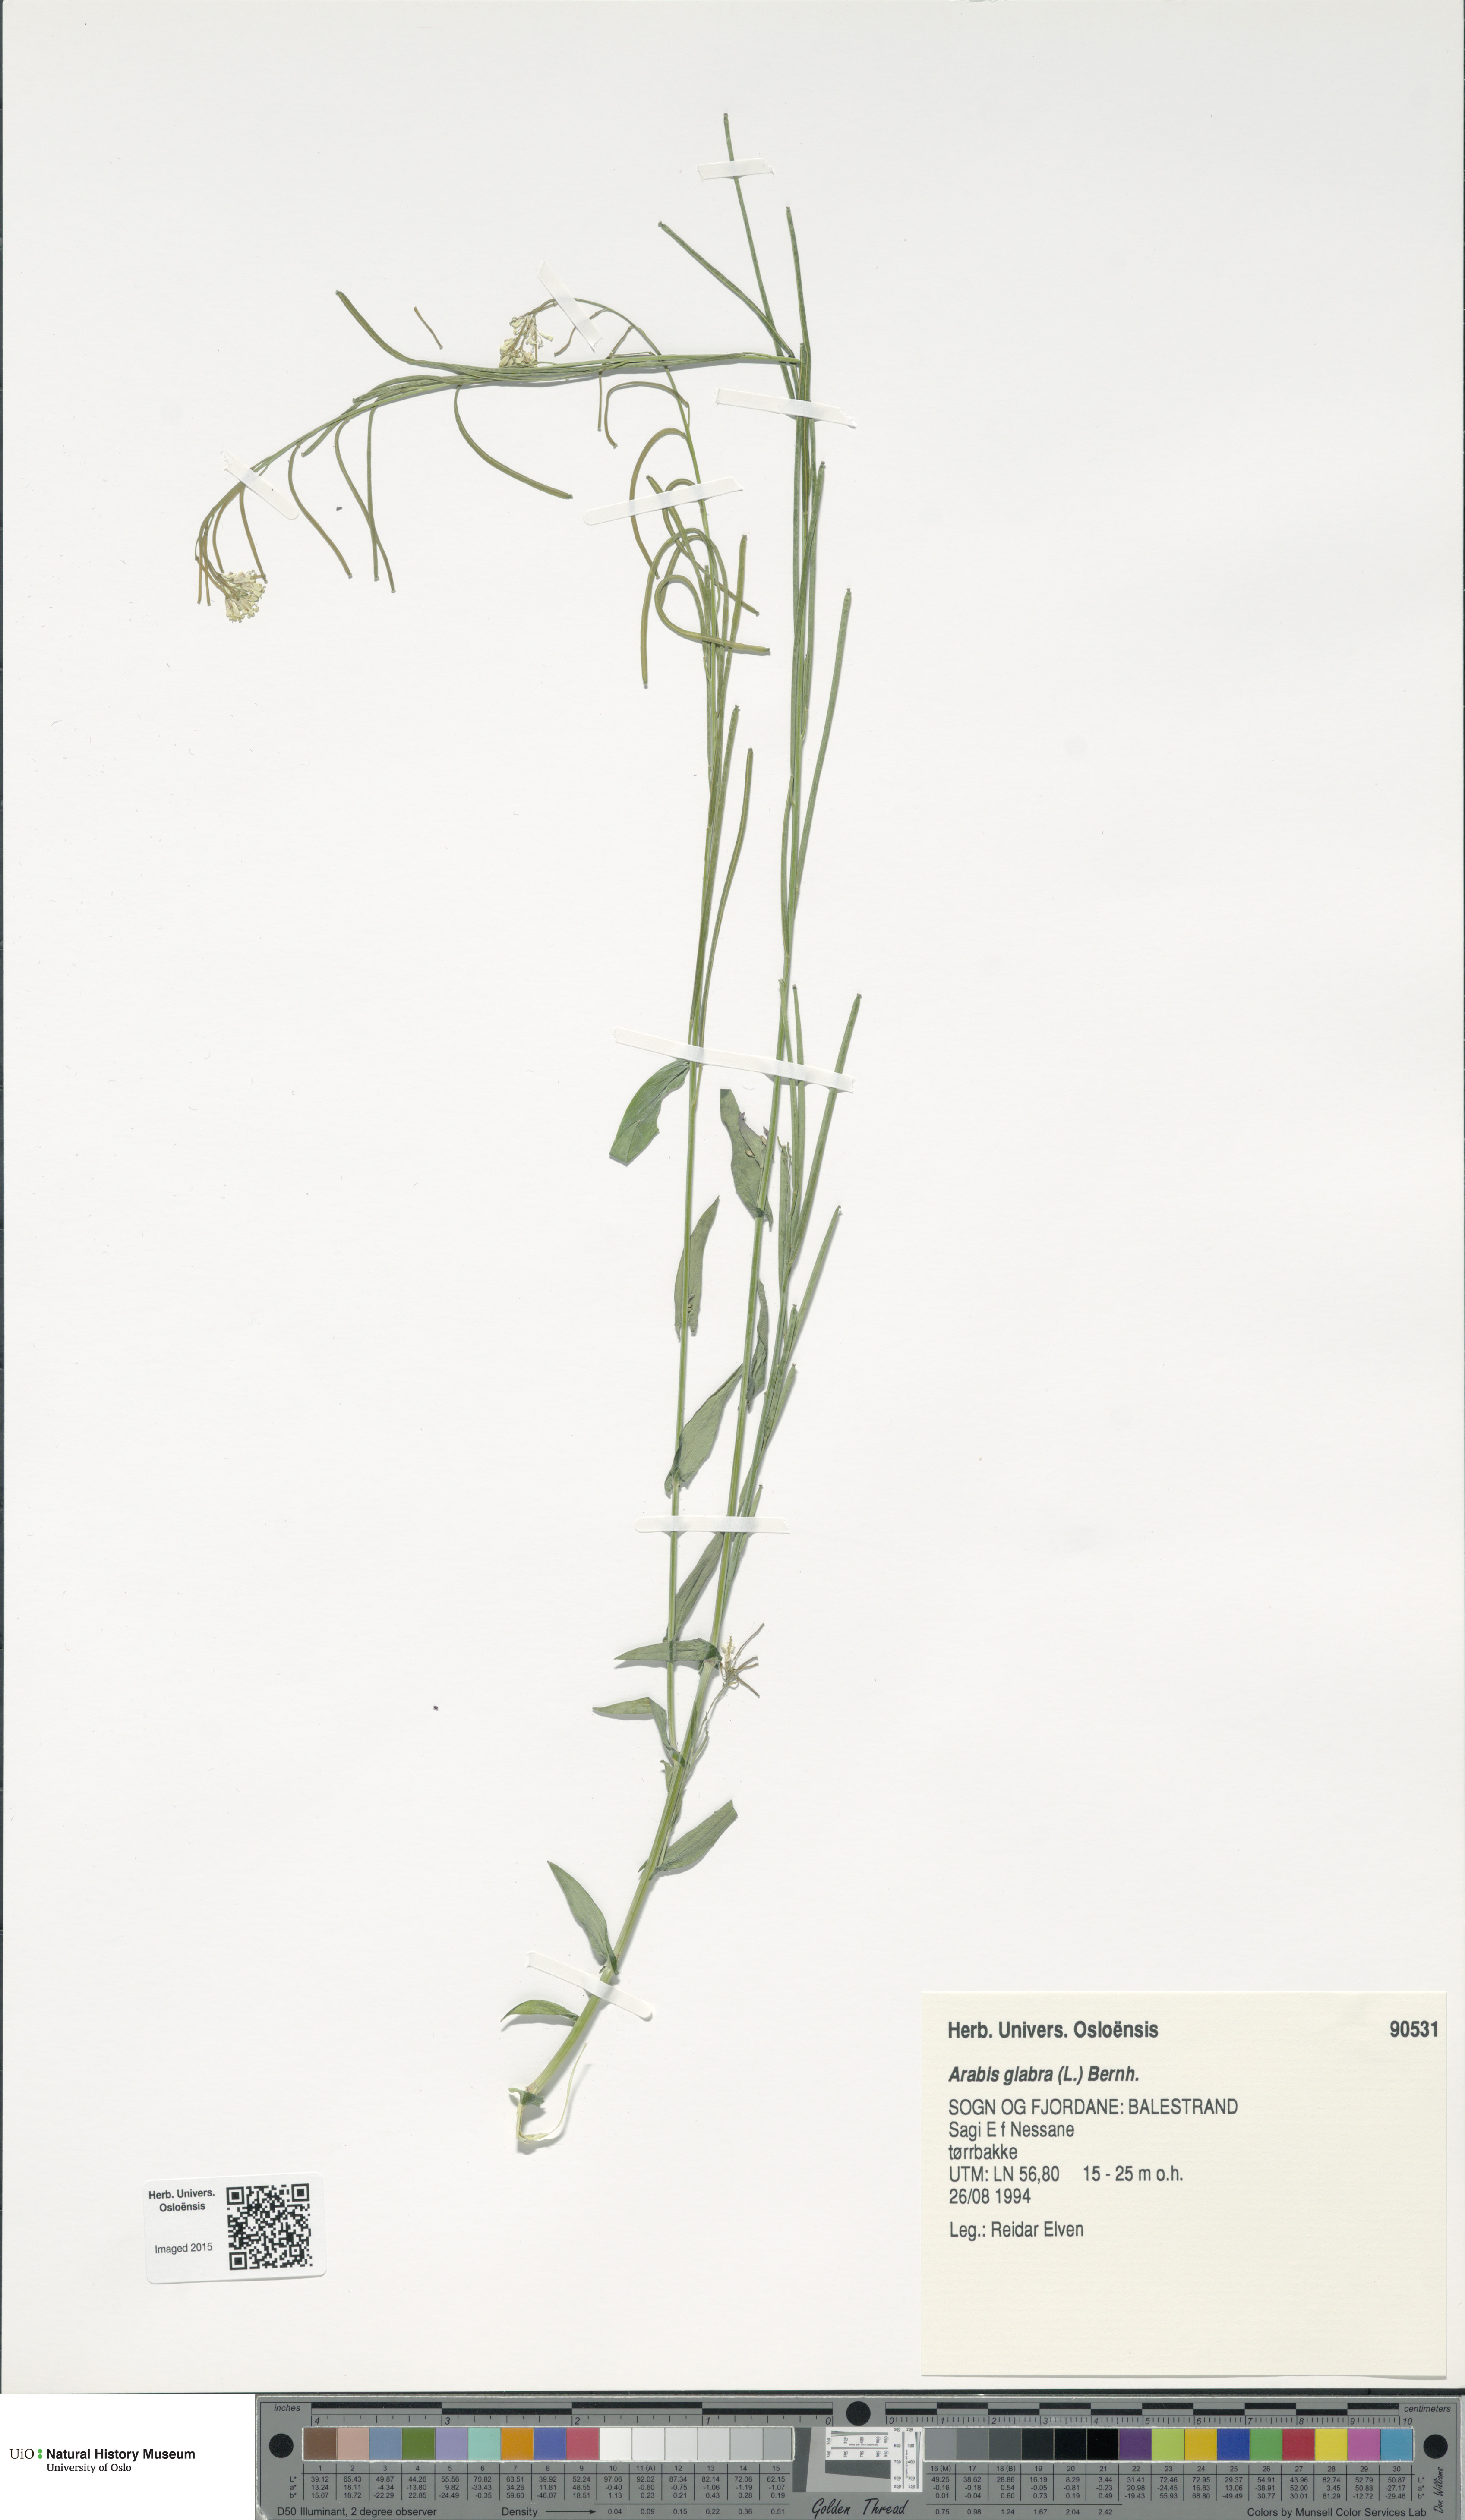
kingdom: Plantae
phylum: Tracheophyta
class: Magnoliopsida
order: Brassicales
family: Brassicaceae
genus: Turritis
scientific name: Turritis glabra
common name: Tower rockcress
